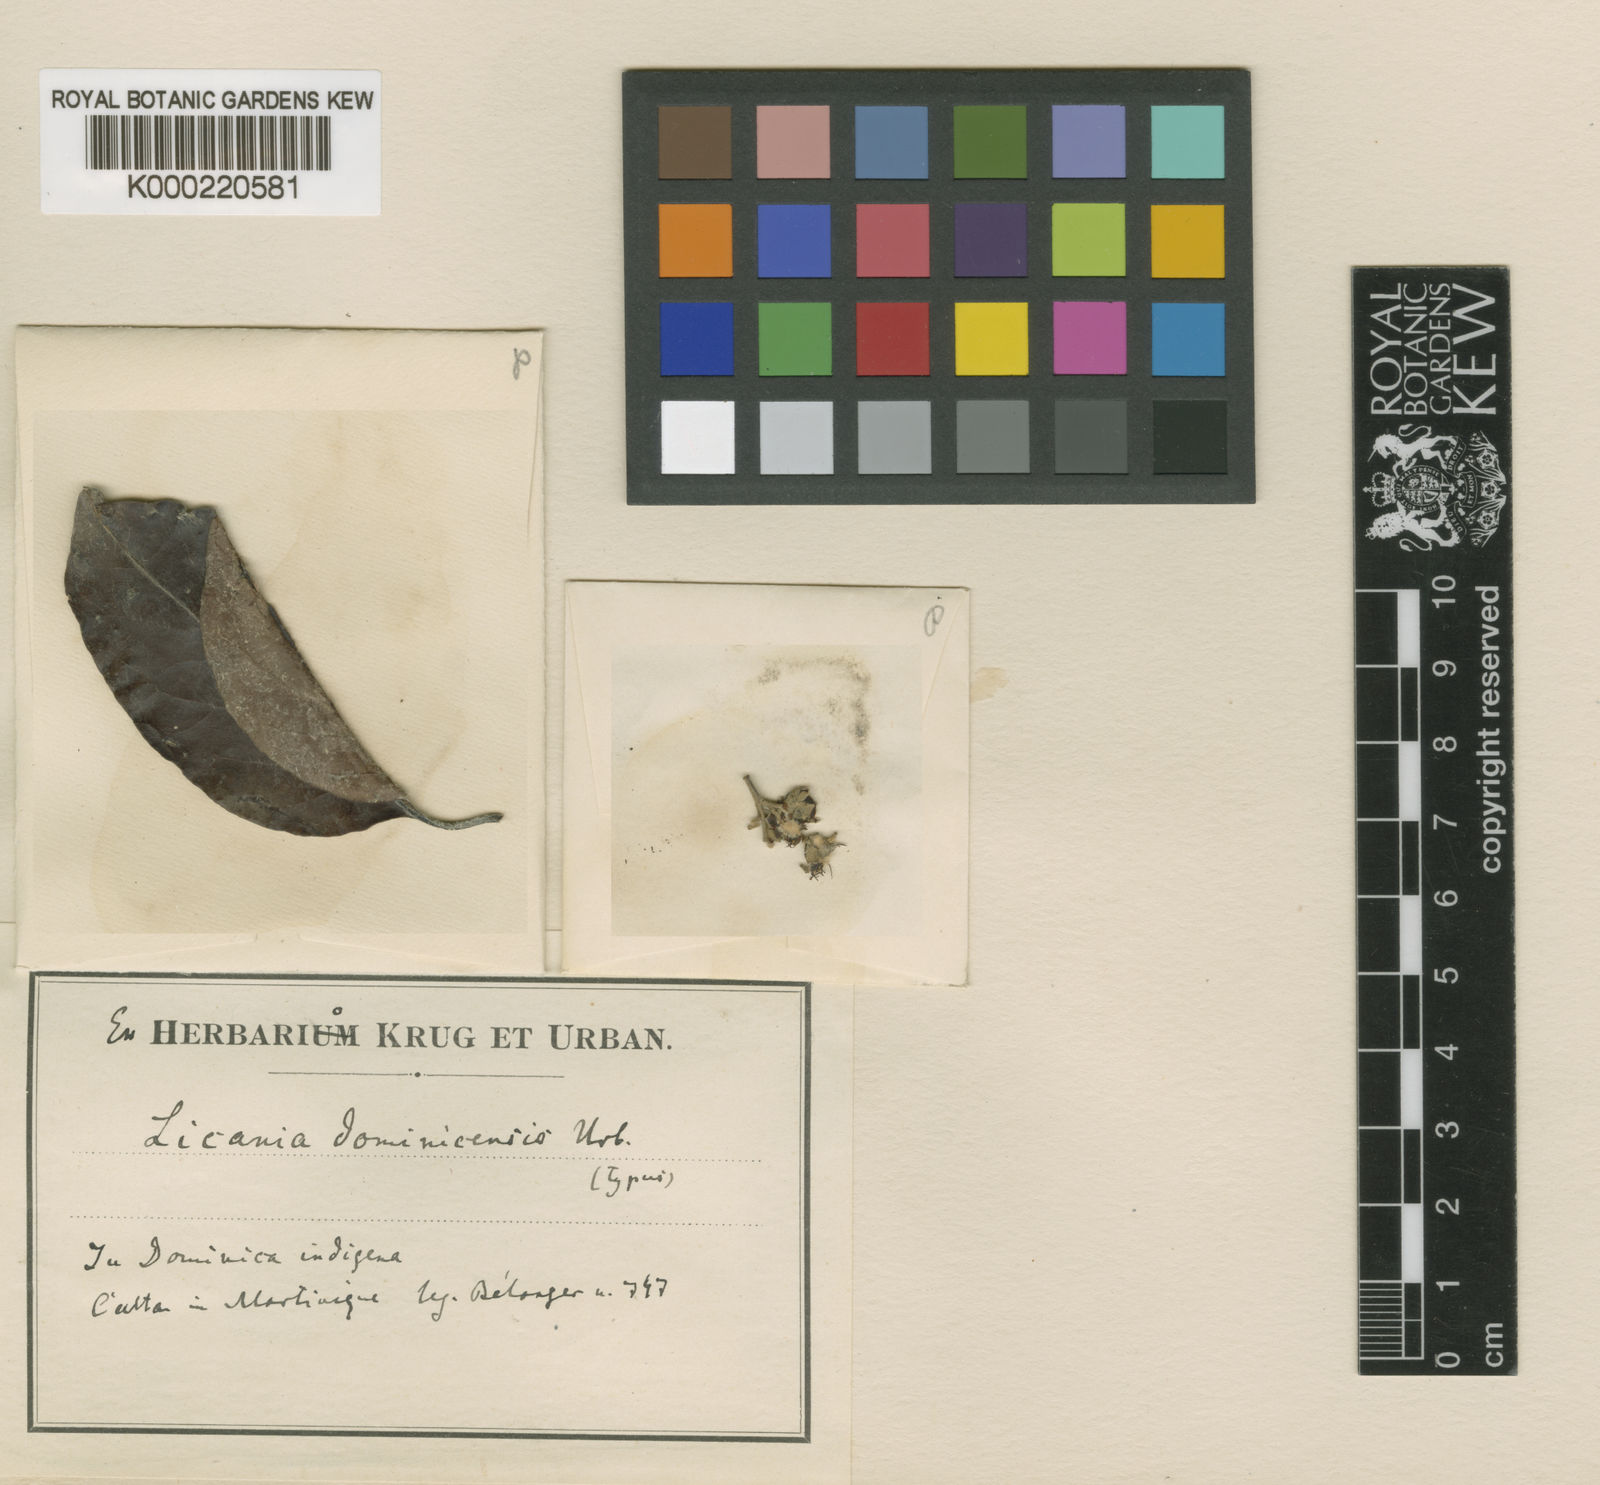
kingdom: Plantae
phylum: Tracheophyta
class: Magnoliopsida
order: Malpighiales
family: Chrysobalanaceae
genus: Licania
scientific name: Licania
